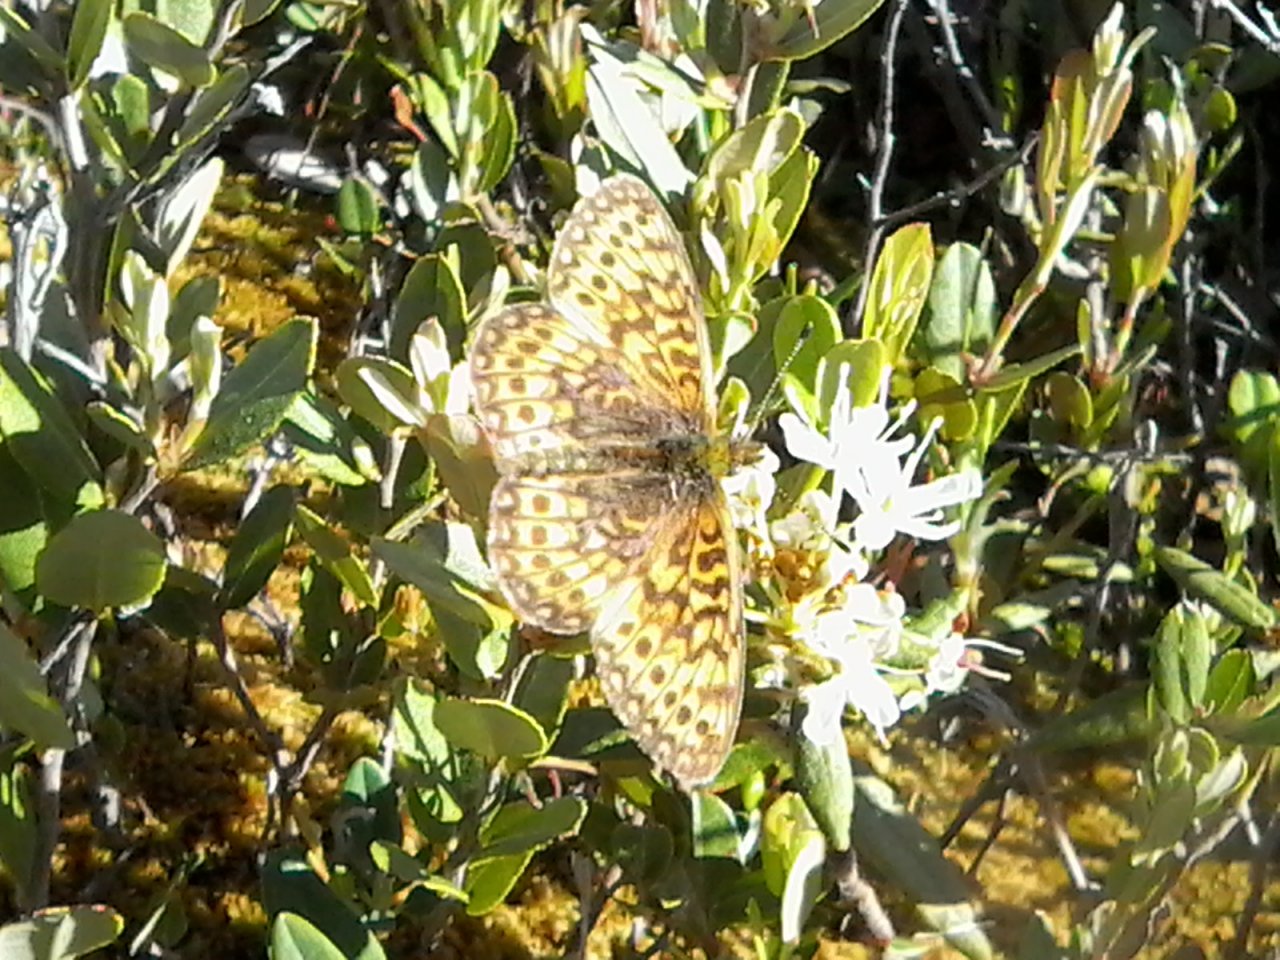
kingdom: Animalia
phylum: Arthropoda
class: Insecta
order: Lepidoptera
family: Nymphalidae
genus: Boloria
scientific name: Boloria eunomia
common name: Bog Fritillary
